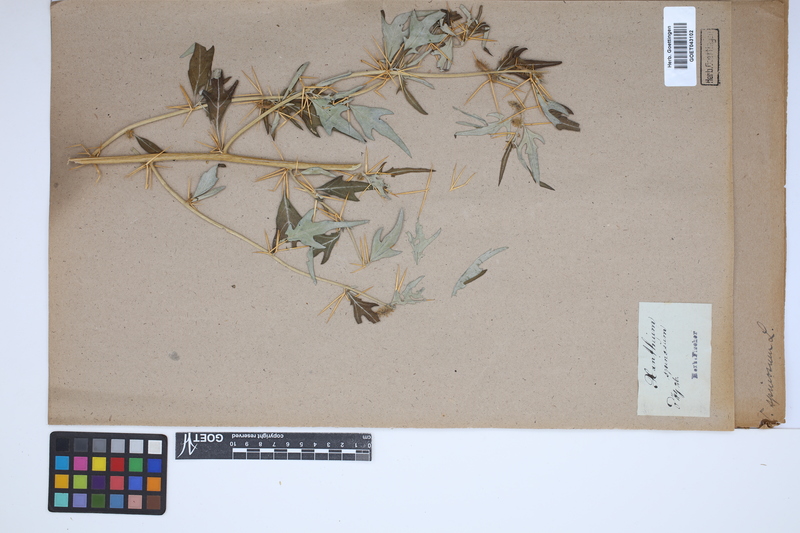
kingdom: Plantae
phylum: Tracheophyta
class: Magnoliopsida
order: Asterales
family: Asteraceae
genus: Xanthium
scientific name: Xanthium spinosum
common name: Spiny cocklebur
